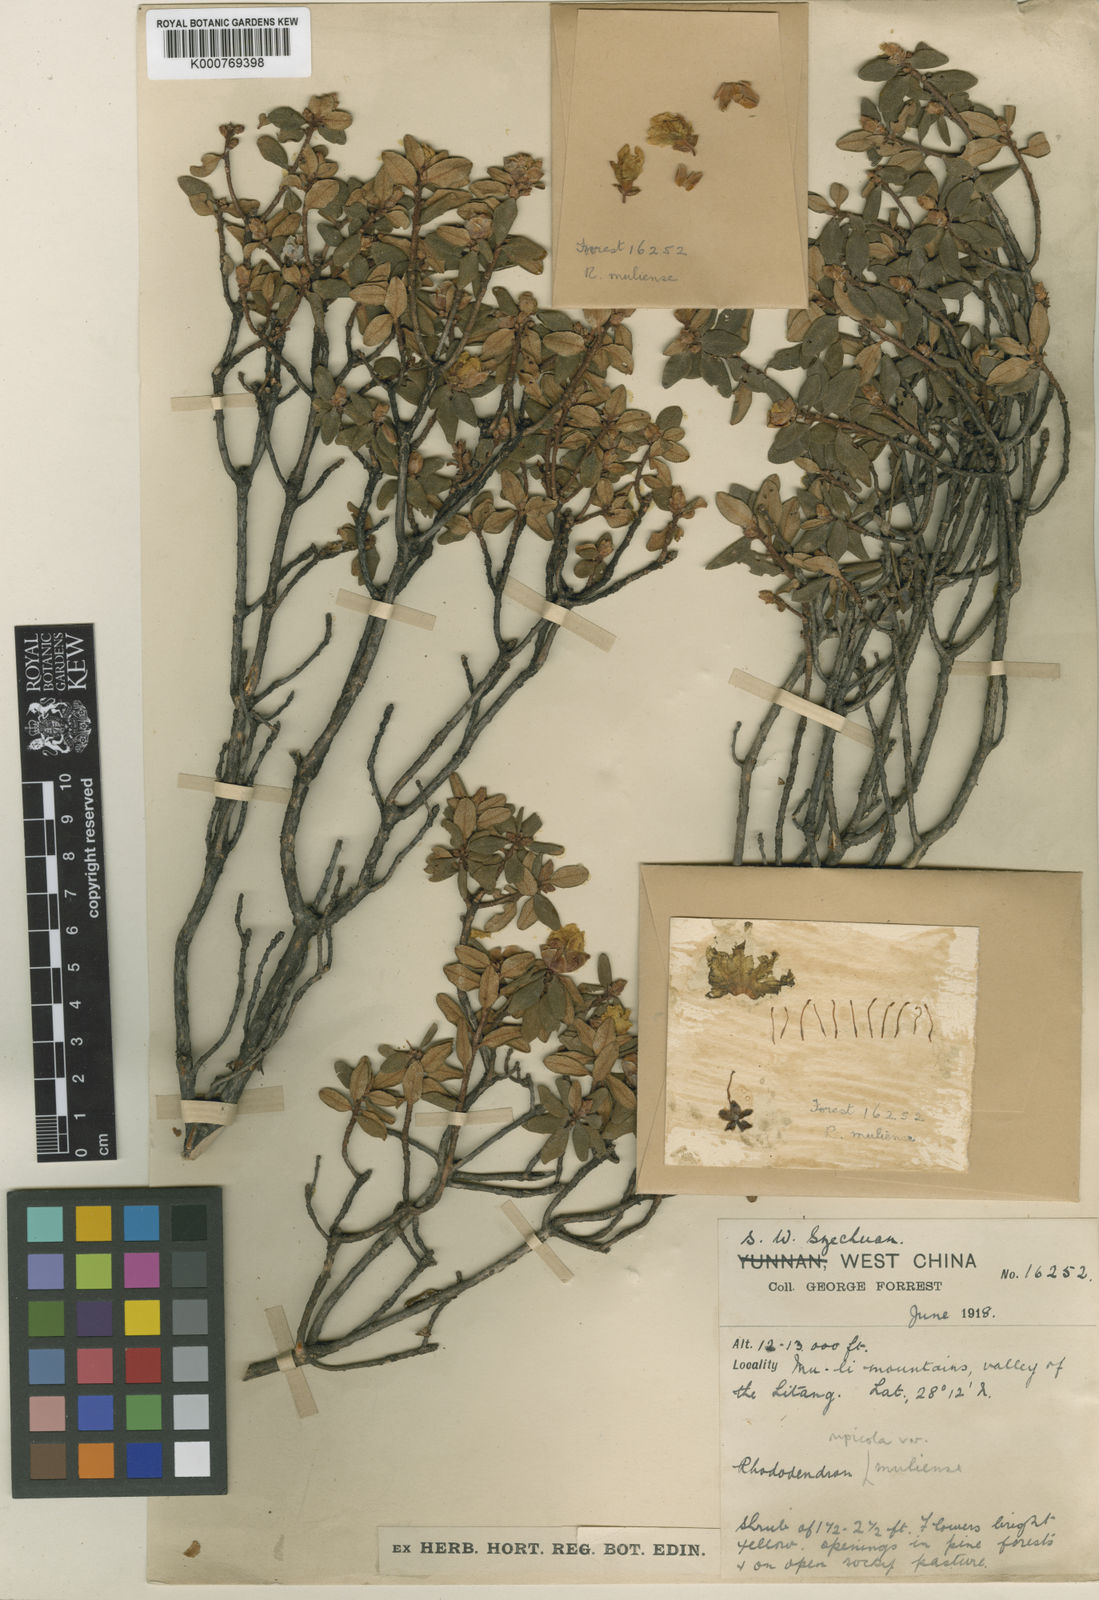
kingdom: Plantae
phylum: Tracheophyta
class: Magnoliopsida
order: Ericales
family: Ericaceae
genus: Rhododendron
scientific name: Rhododendron rupicola
